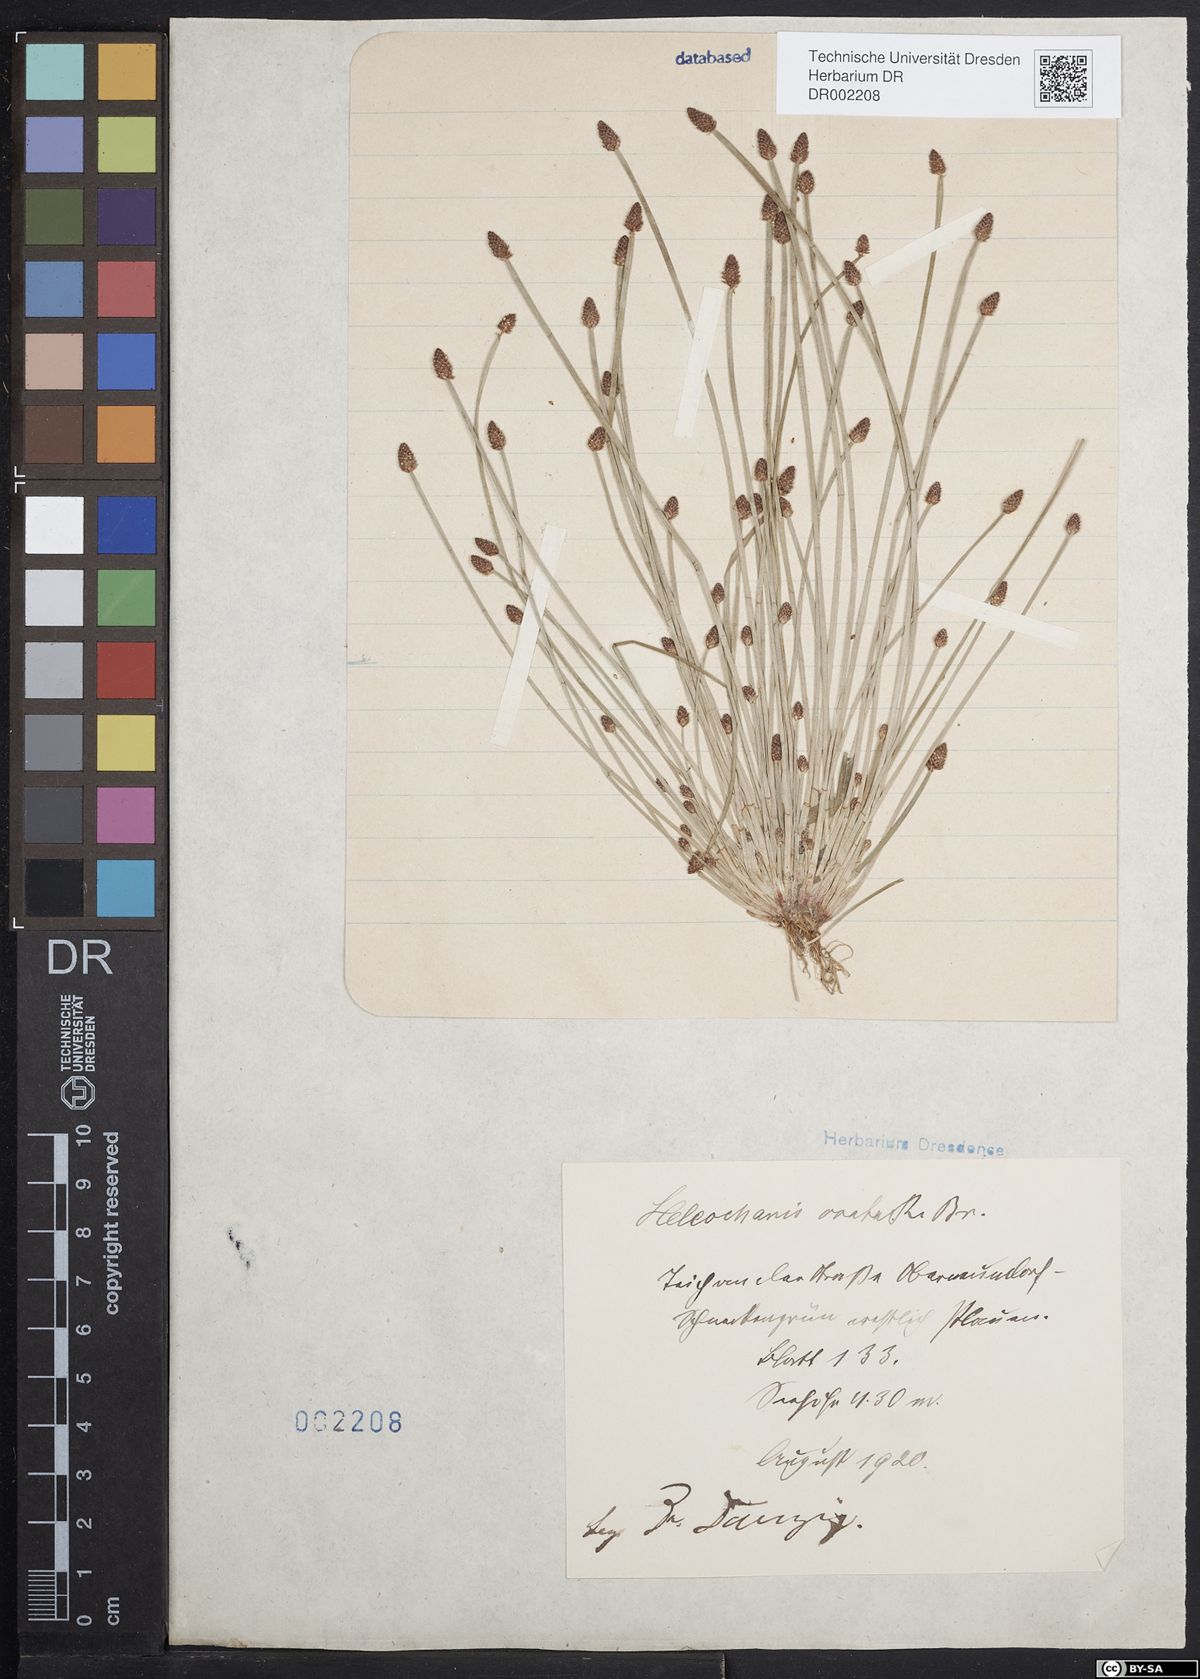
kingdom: Plantae
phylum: Tracheophyta
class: Liliopsida
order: Poales
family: Cyperaceae
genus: Eleocharis
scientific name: Eleocharis ovata
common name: Oval spike-rush
